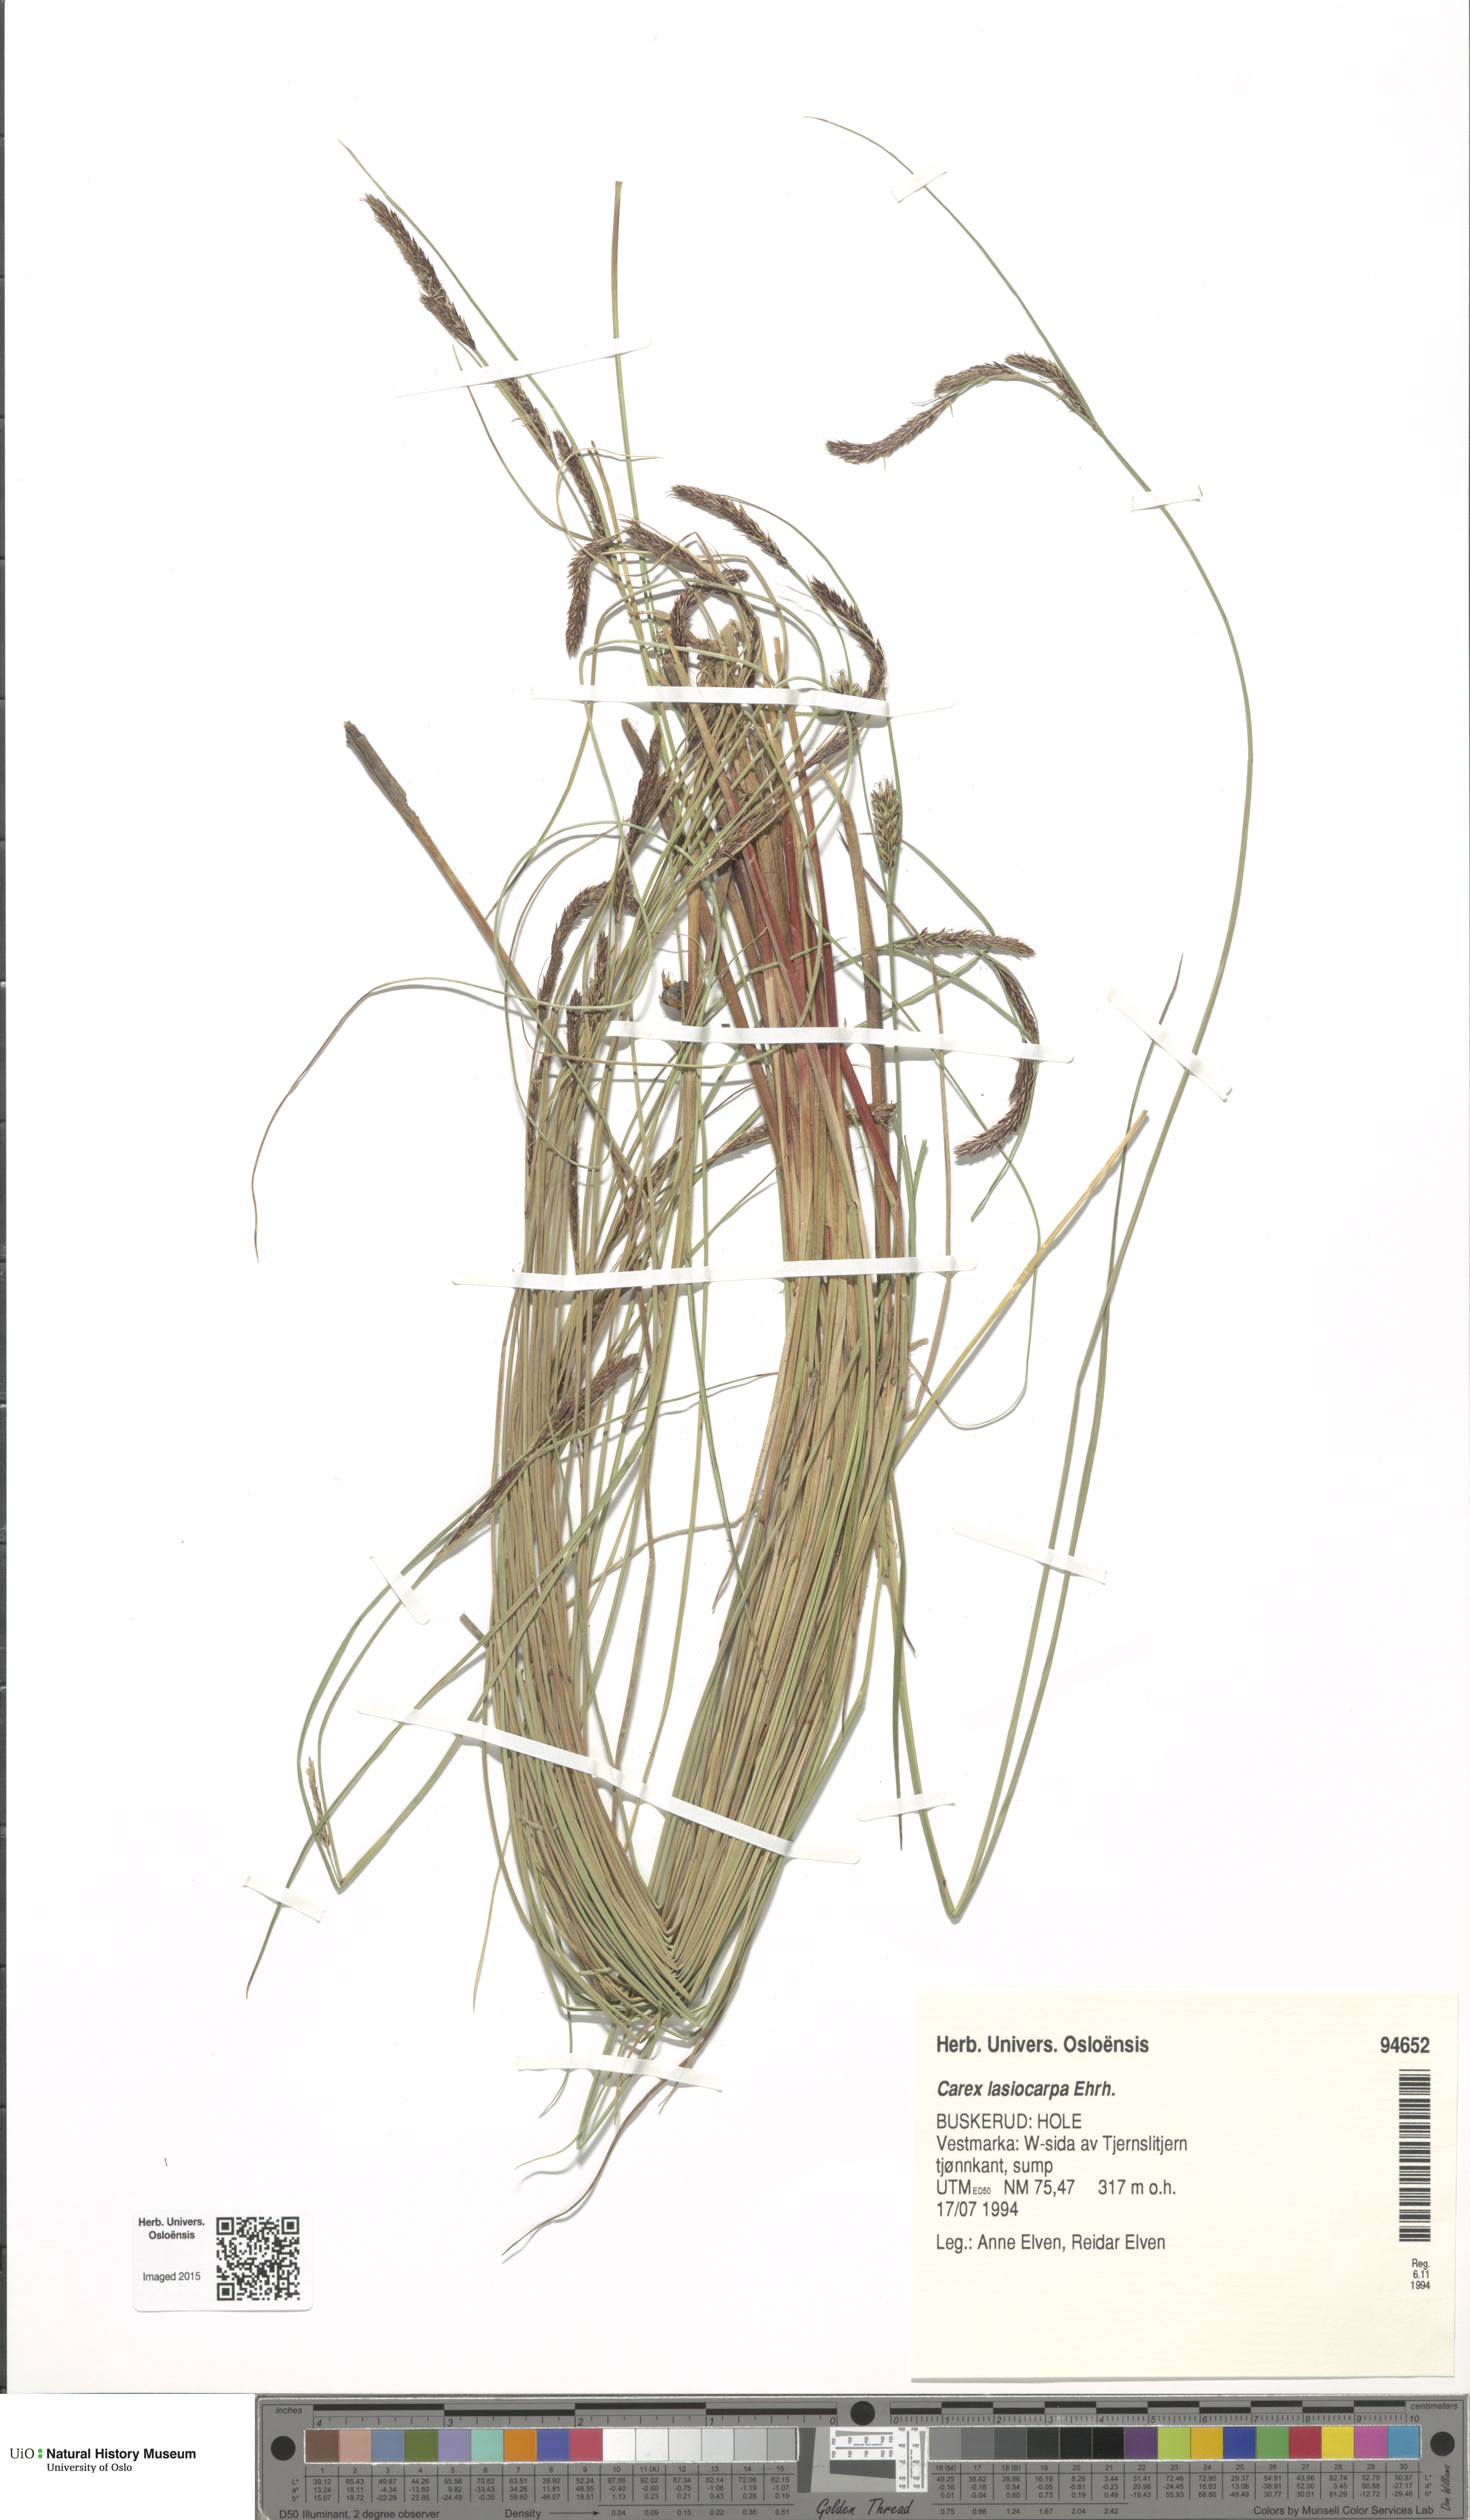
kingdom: Plantae
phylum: Tracheophyta
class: Liliopsida
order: Poales
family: Cyperaceae
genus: Carex
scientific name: Carex lasiocarpa
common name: Slender sedge
